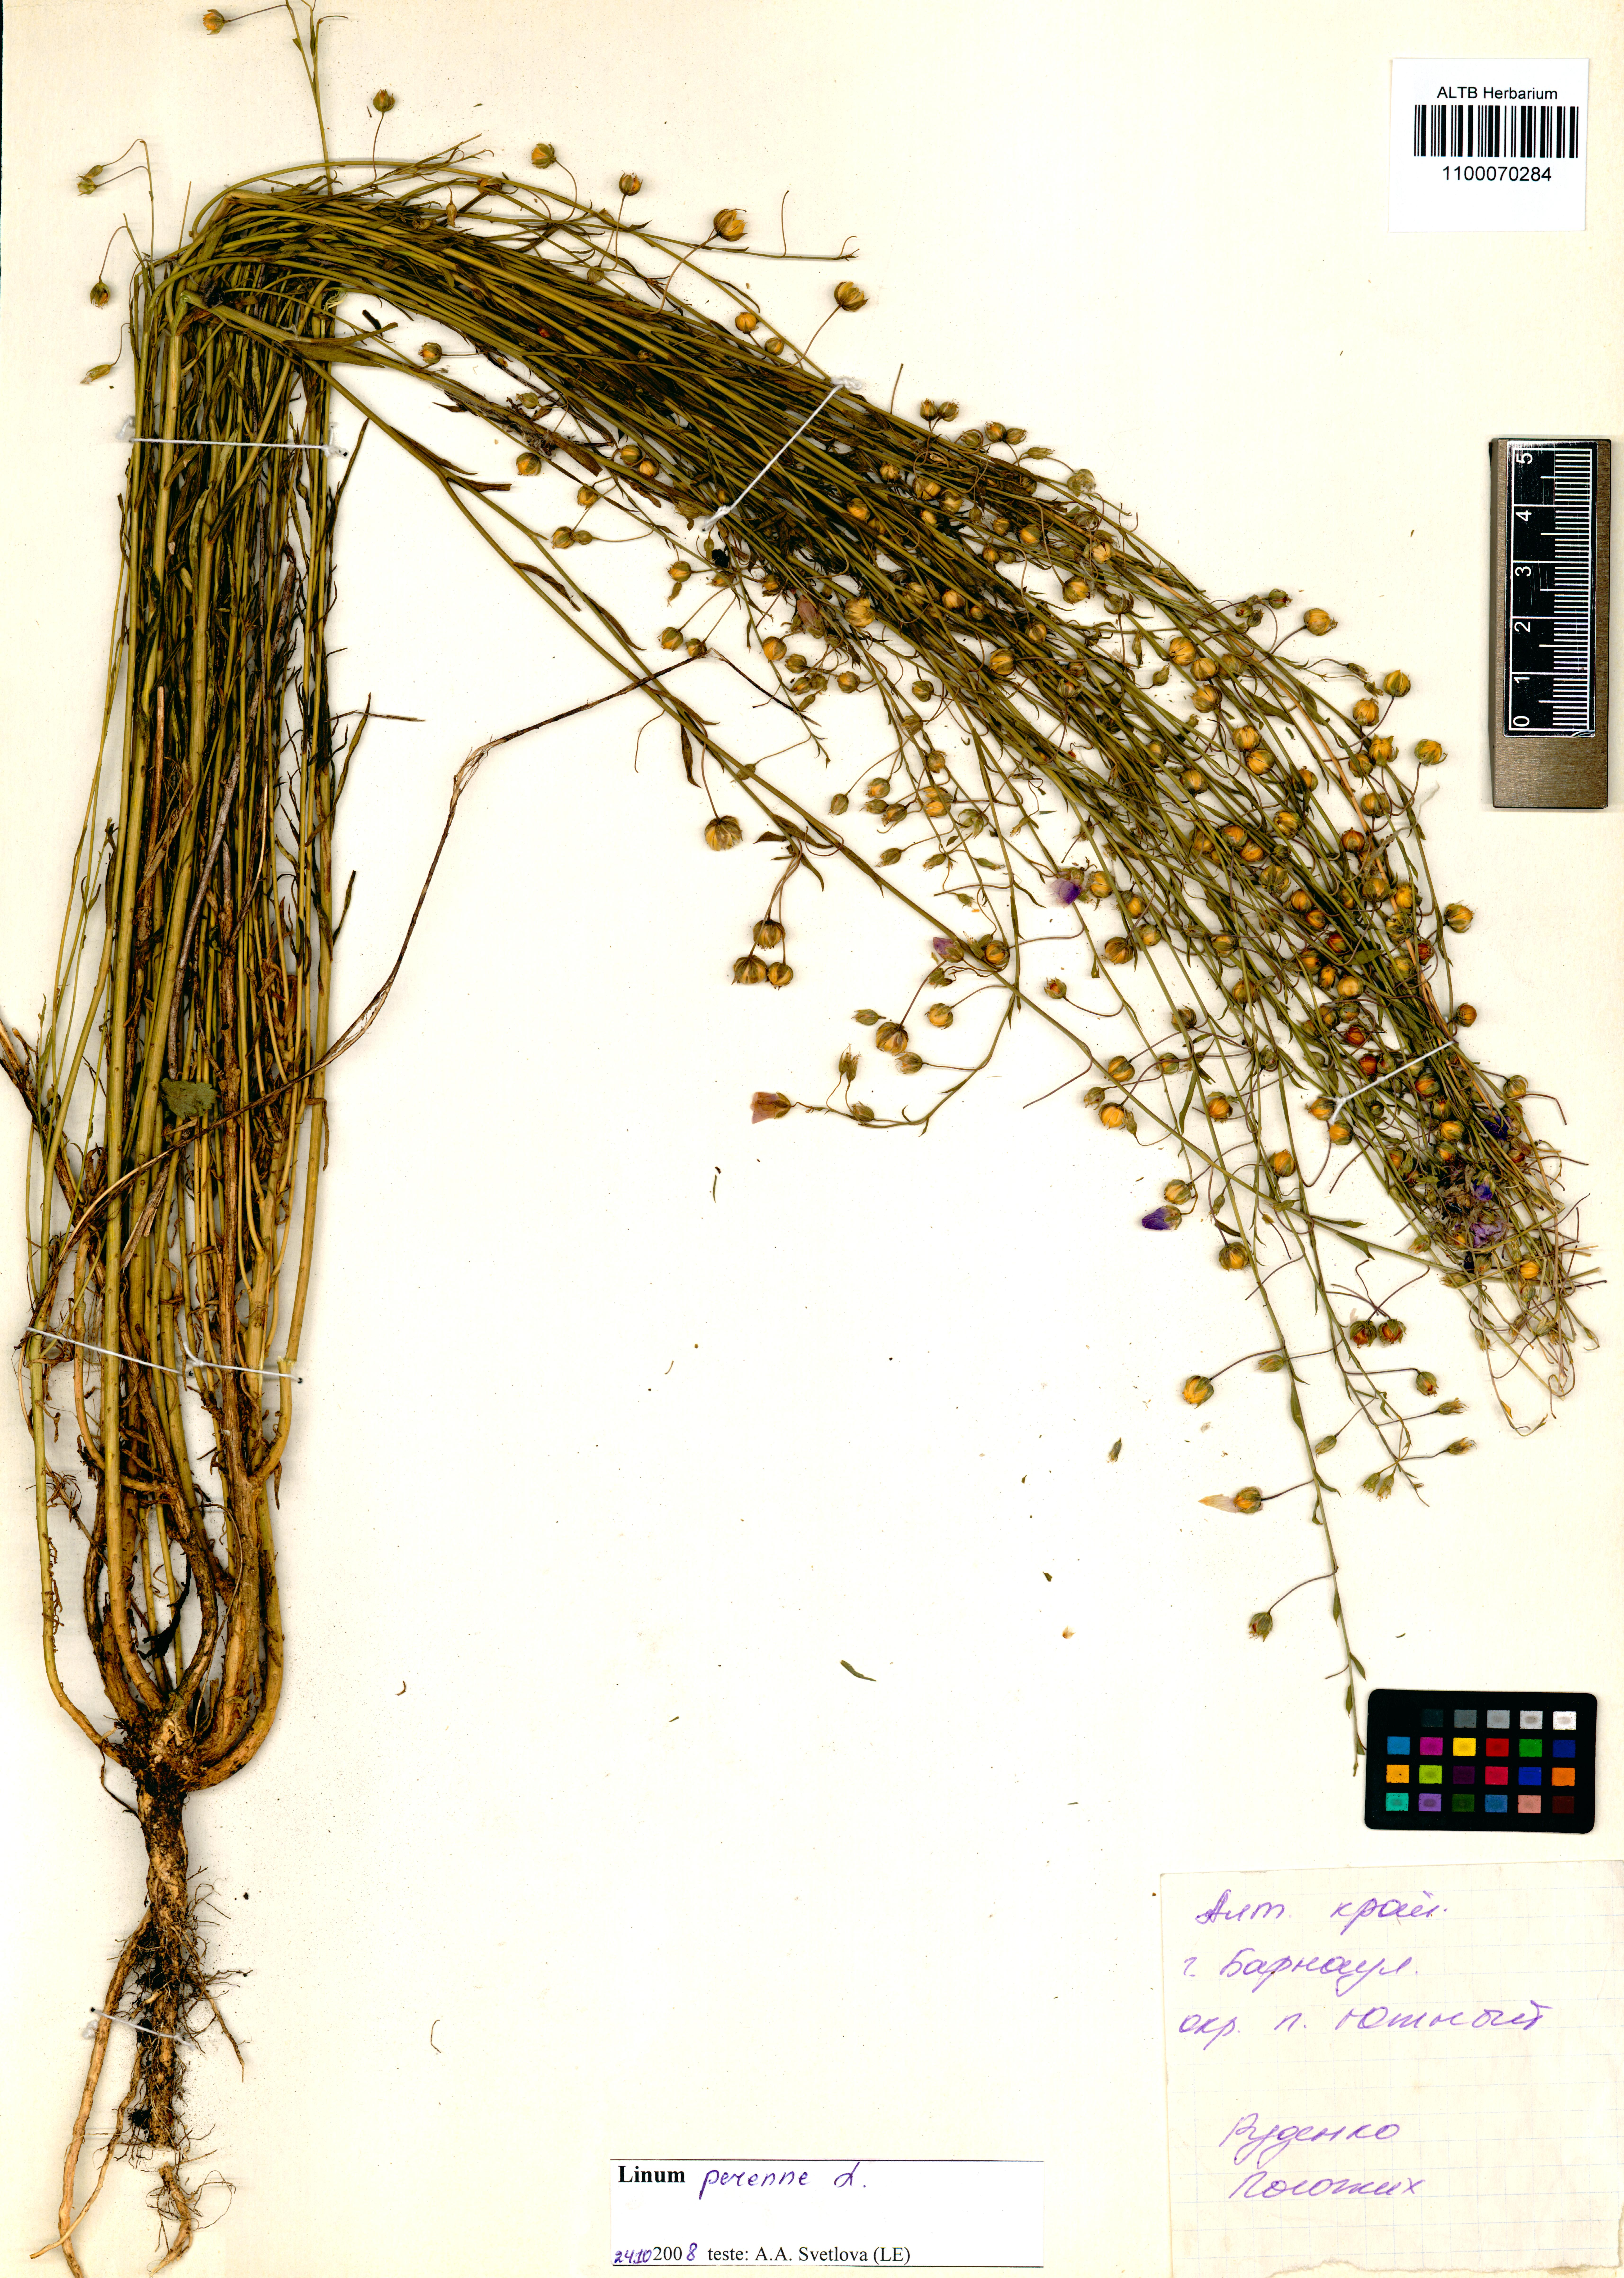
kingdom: Plantae
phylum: Tracheophyta
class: Magnoliopsida
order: Malpighiales
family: Linaceae
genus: Linum
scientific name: Linum perenne
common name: Blue flax
